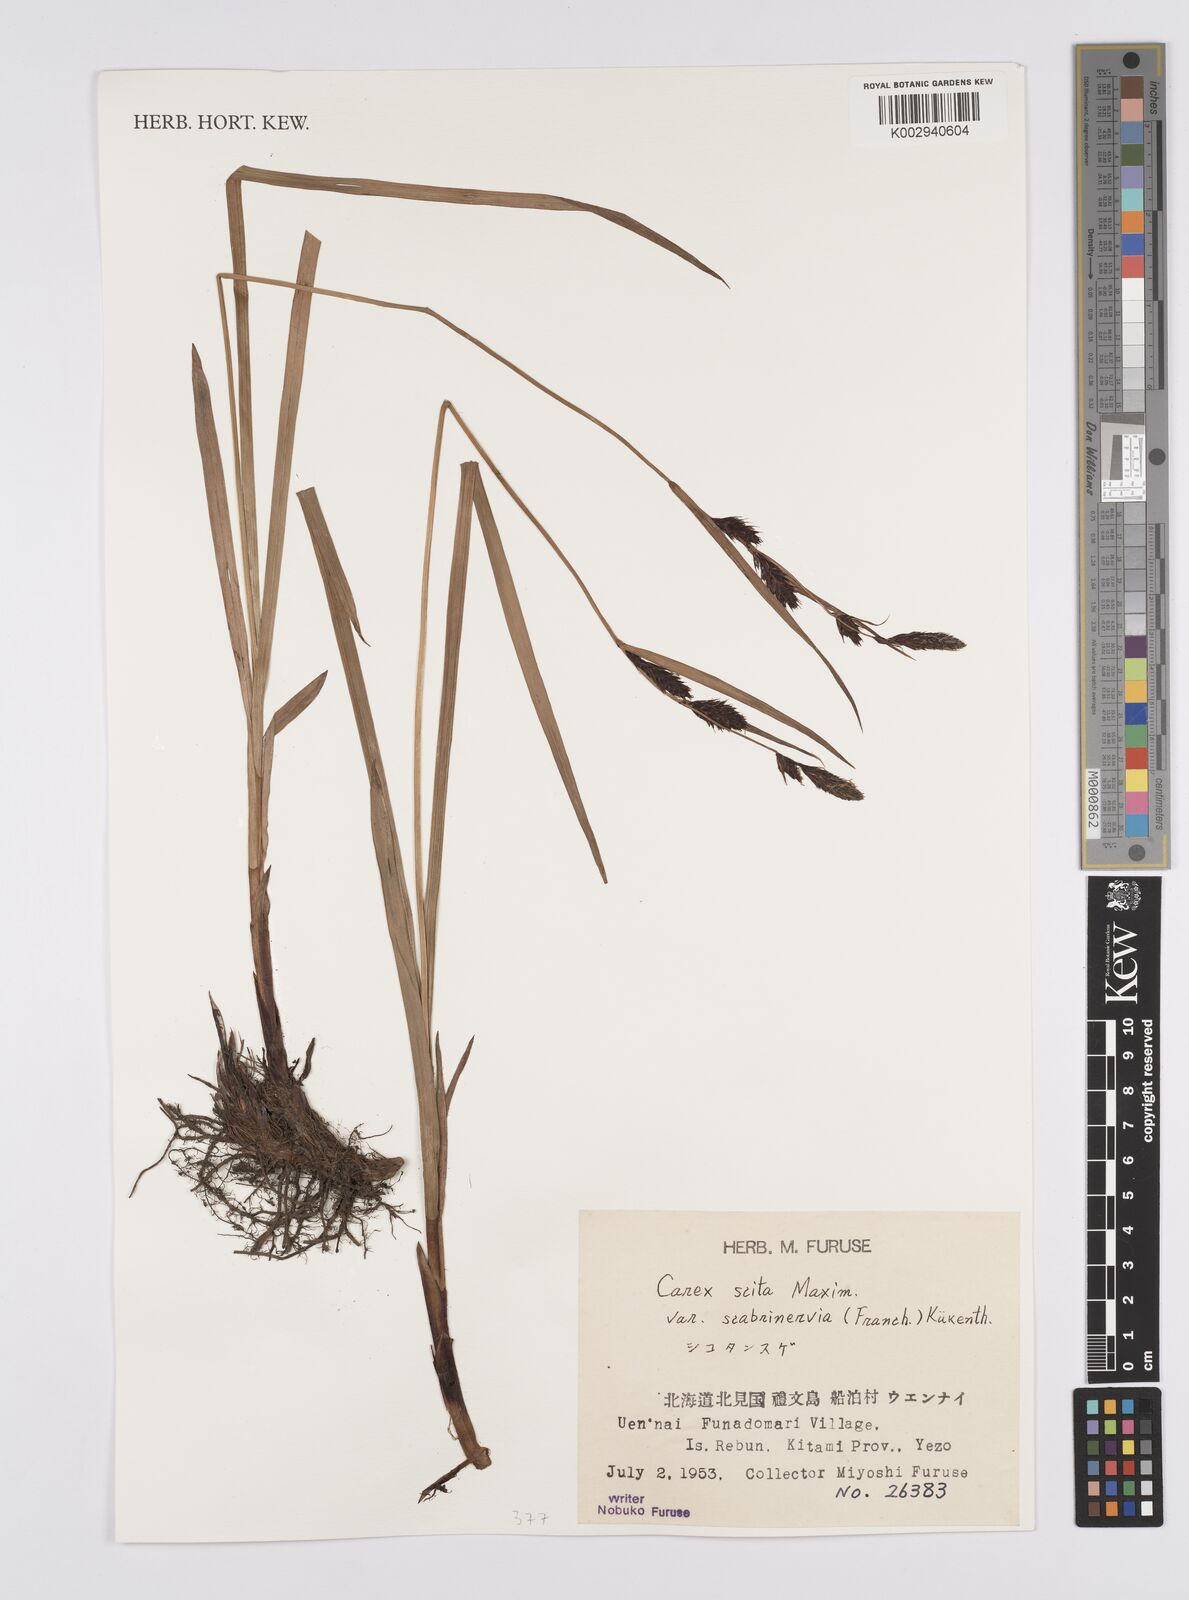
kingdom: Plantae
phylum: Tracheophyta
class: Liliopsida
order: Poales
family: Cyperaceae
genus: Carex
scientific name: Carex scita
